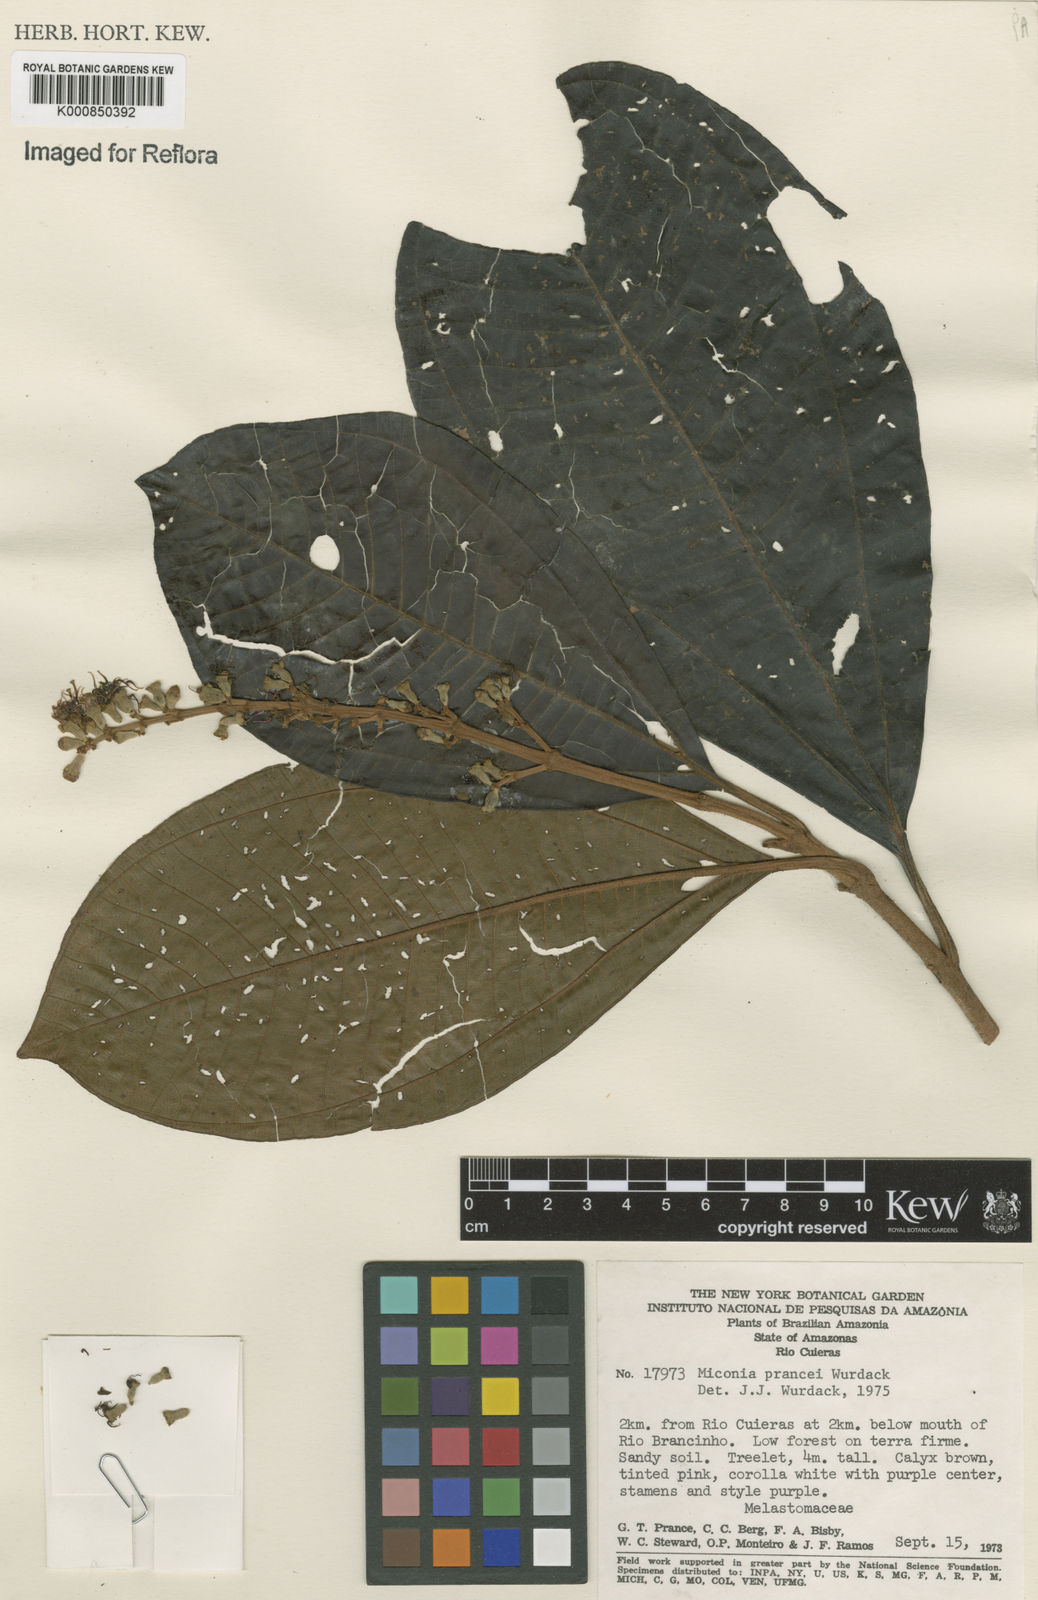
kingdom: Plantae
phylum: Tracheophyta
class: Magnoliopsida
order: Myrtales
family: Melastomataceae
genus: Miconia
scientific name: Miconia prancei
